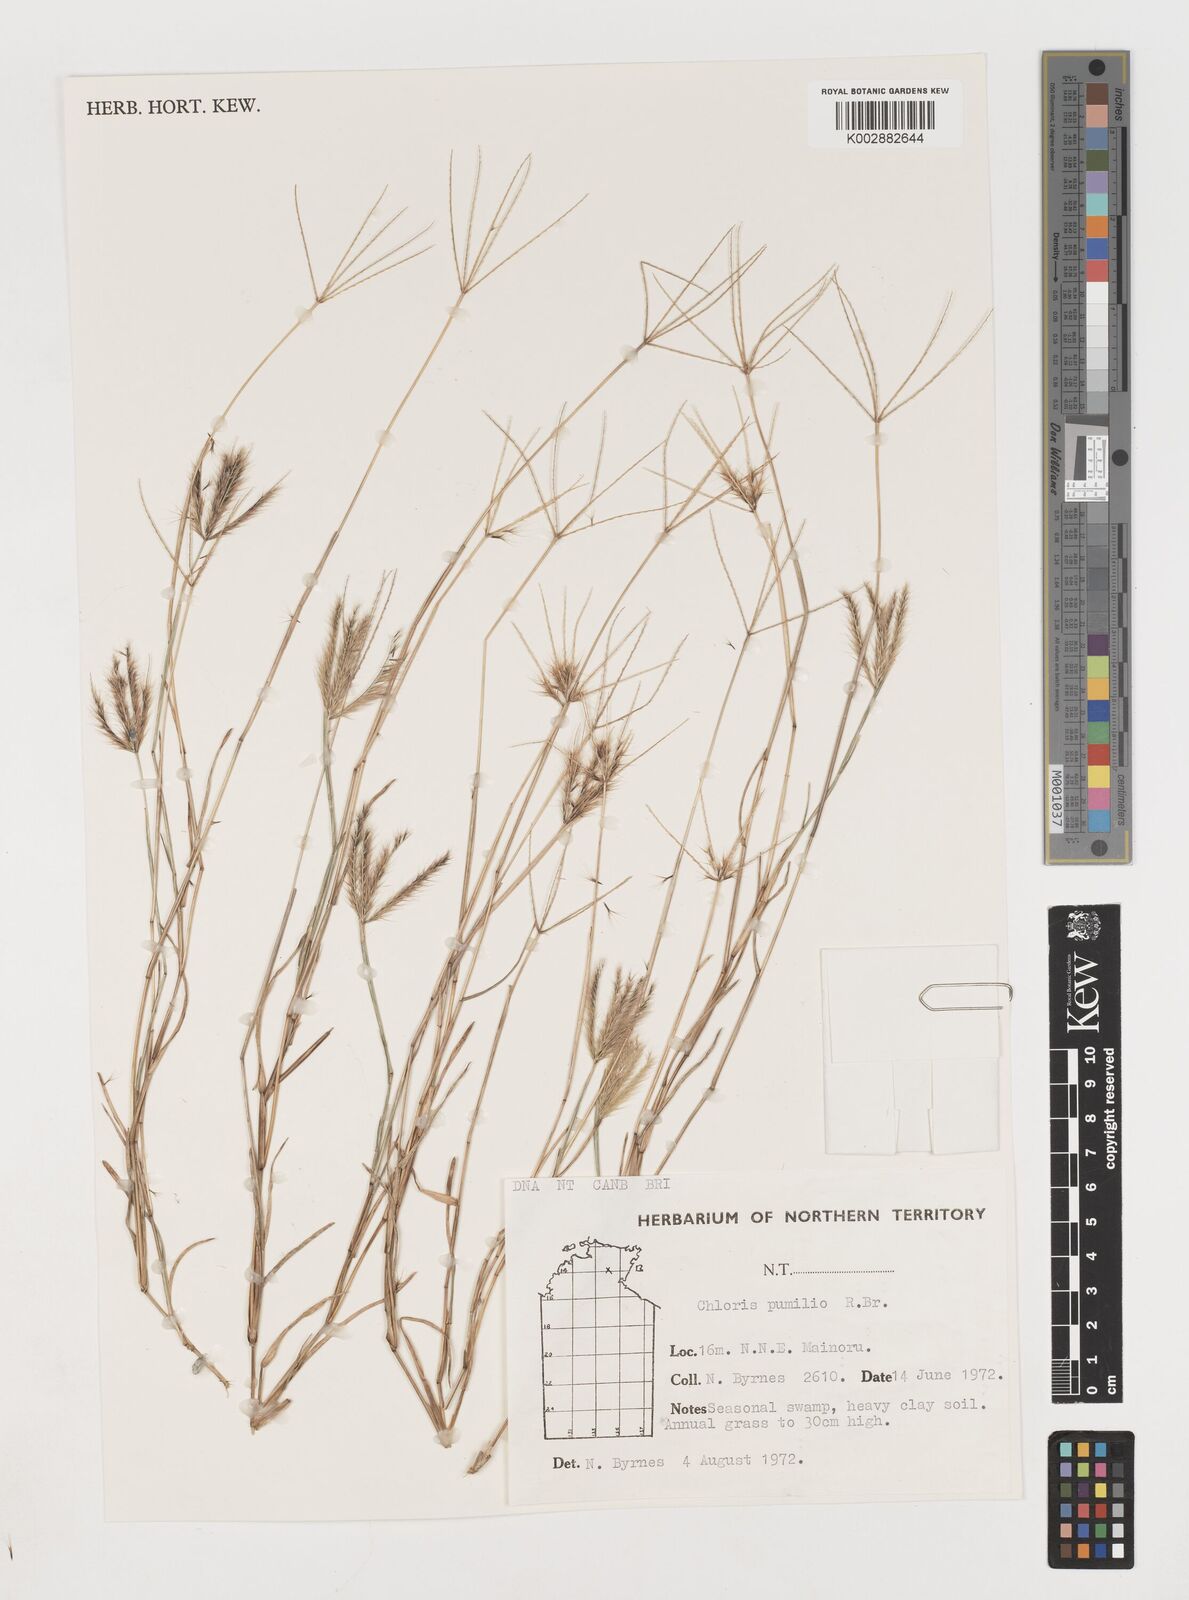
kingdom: Plantae
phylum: Tracheophyta
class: Liliopsida
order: Poales
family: Poaceae
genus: Chloris
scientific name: Chloris lobata
